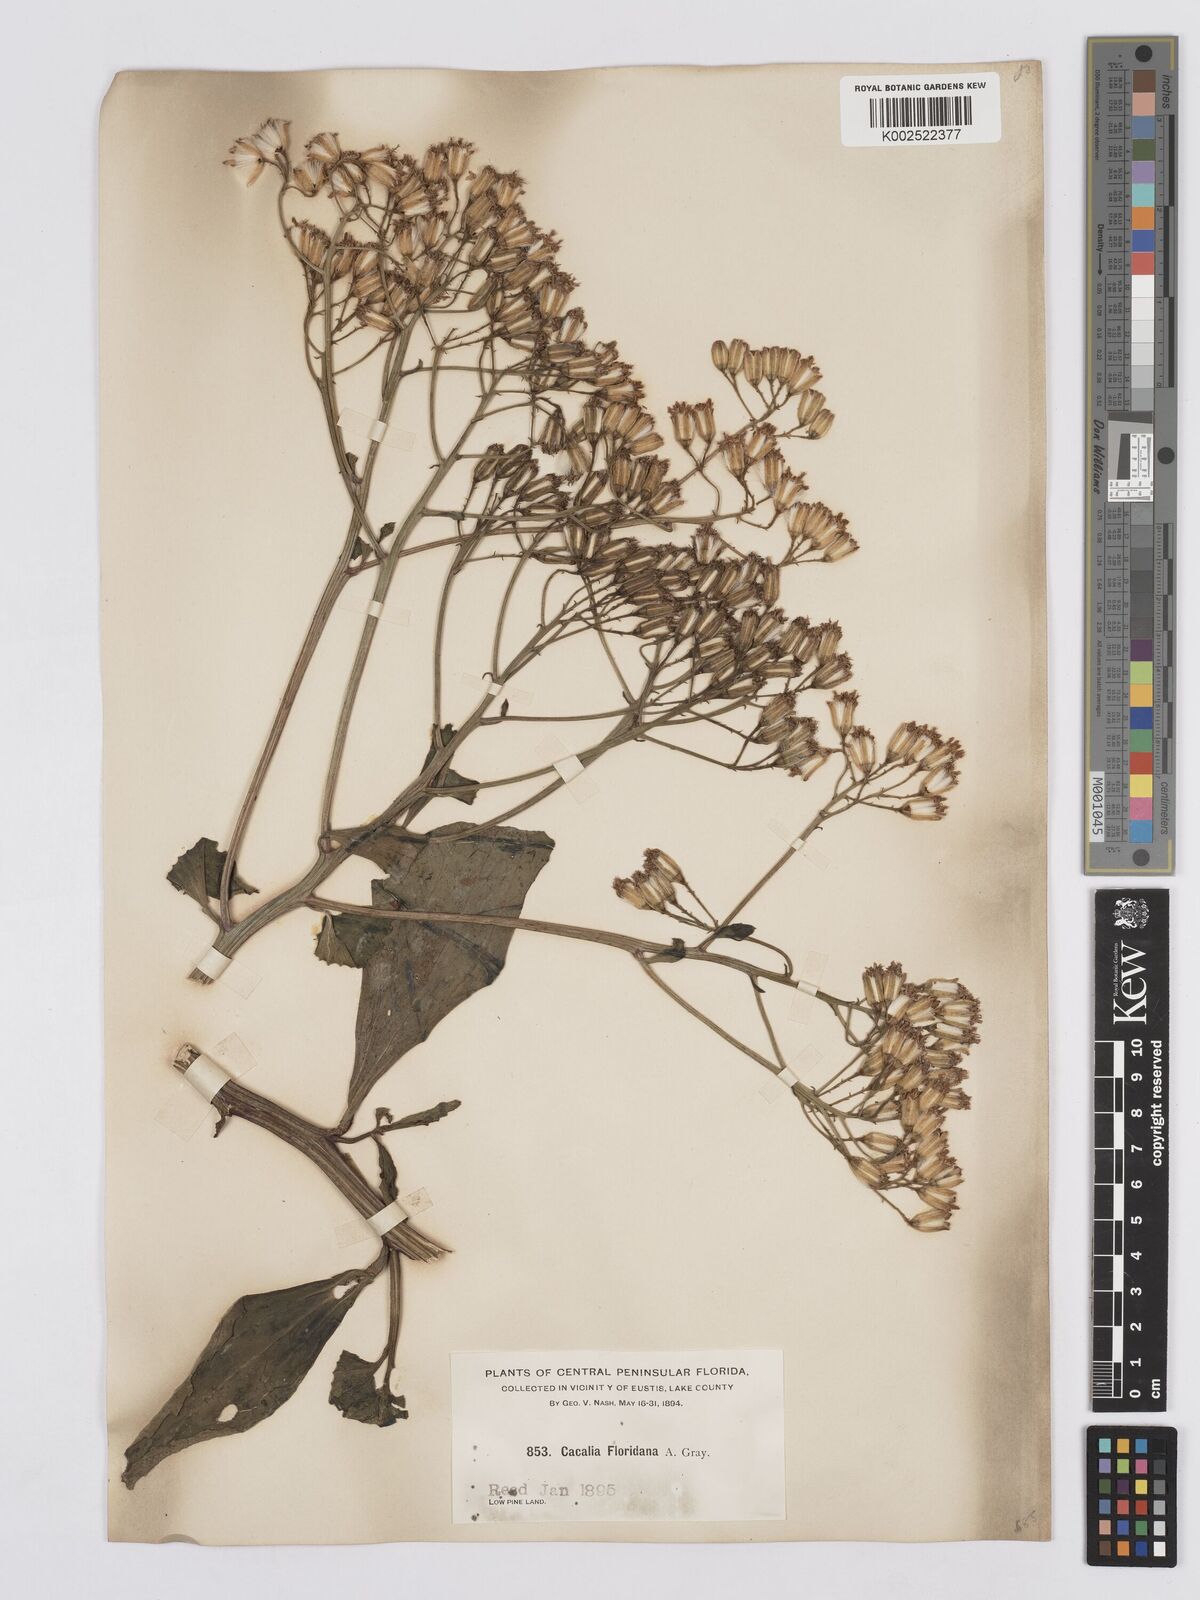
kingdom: Plantae
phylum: Tracheophyta
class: Magnoliopsida
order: Asterales
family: Asteraceae
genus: Arnoglossum
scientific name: Arnoglossum floridanum
